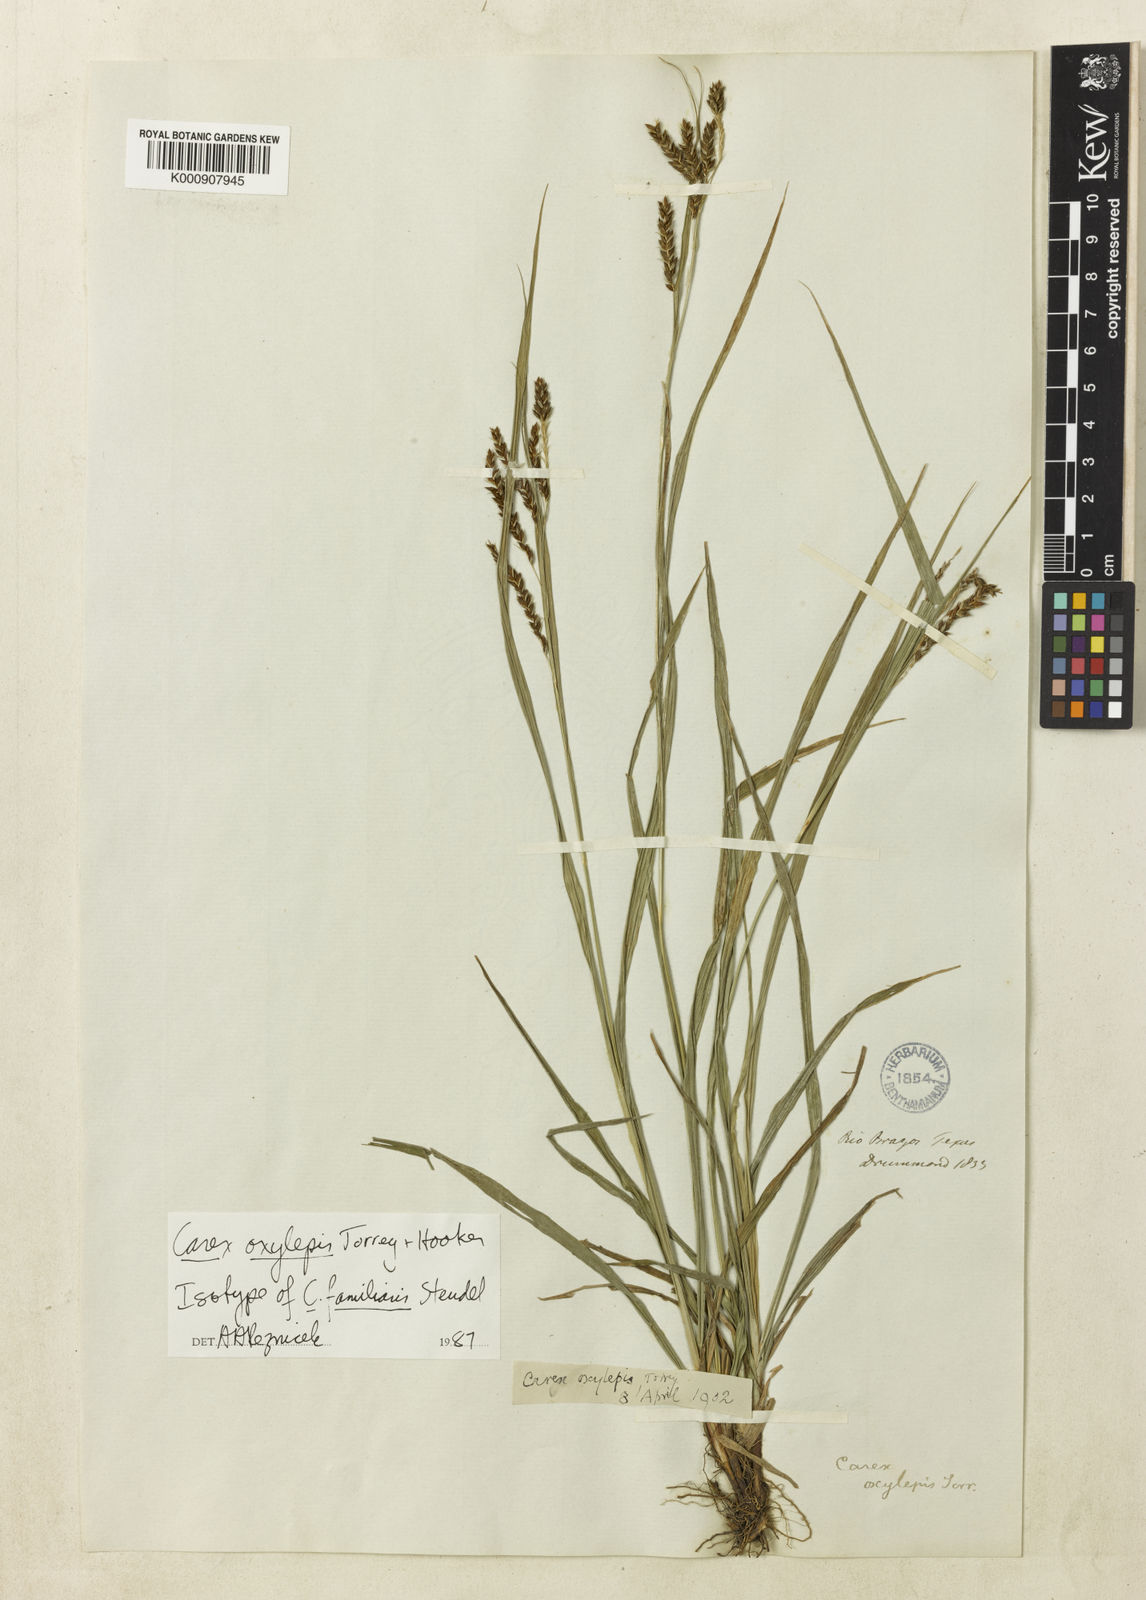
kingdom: Plantae
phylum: Tracheophyta
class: Liliopsida
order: Poales
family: Cyperaceae
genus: Carex
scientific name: Carex oxylepis
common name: Sharpscale sedge
